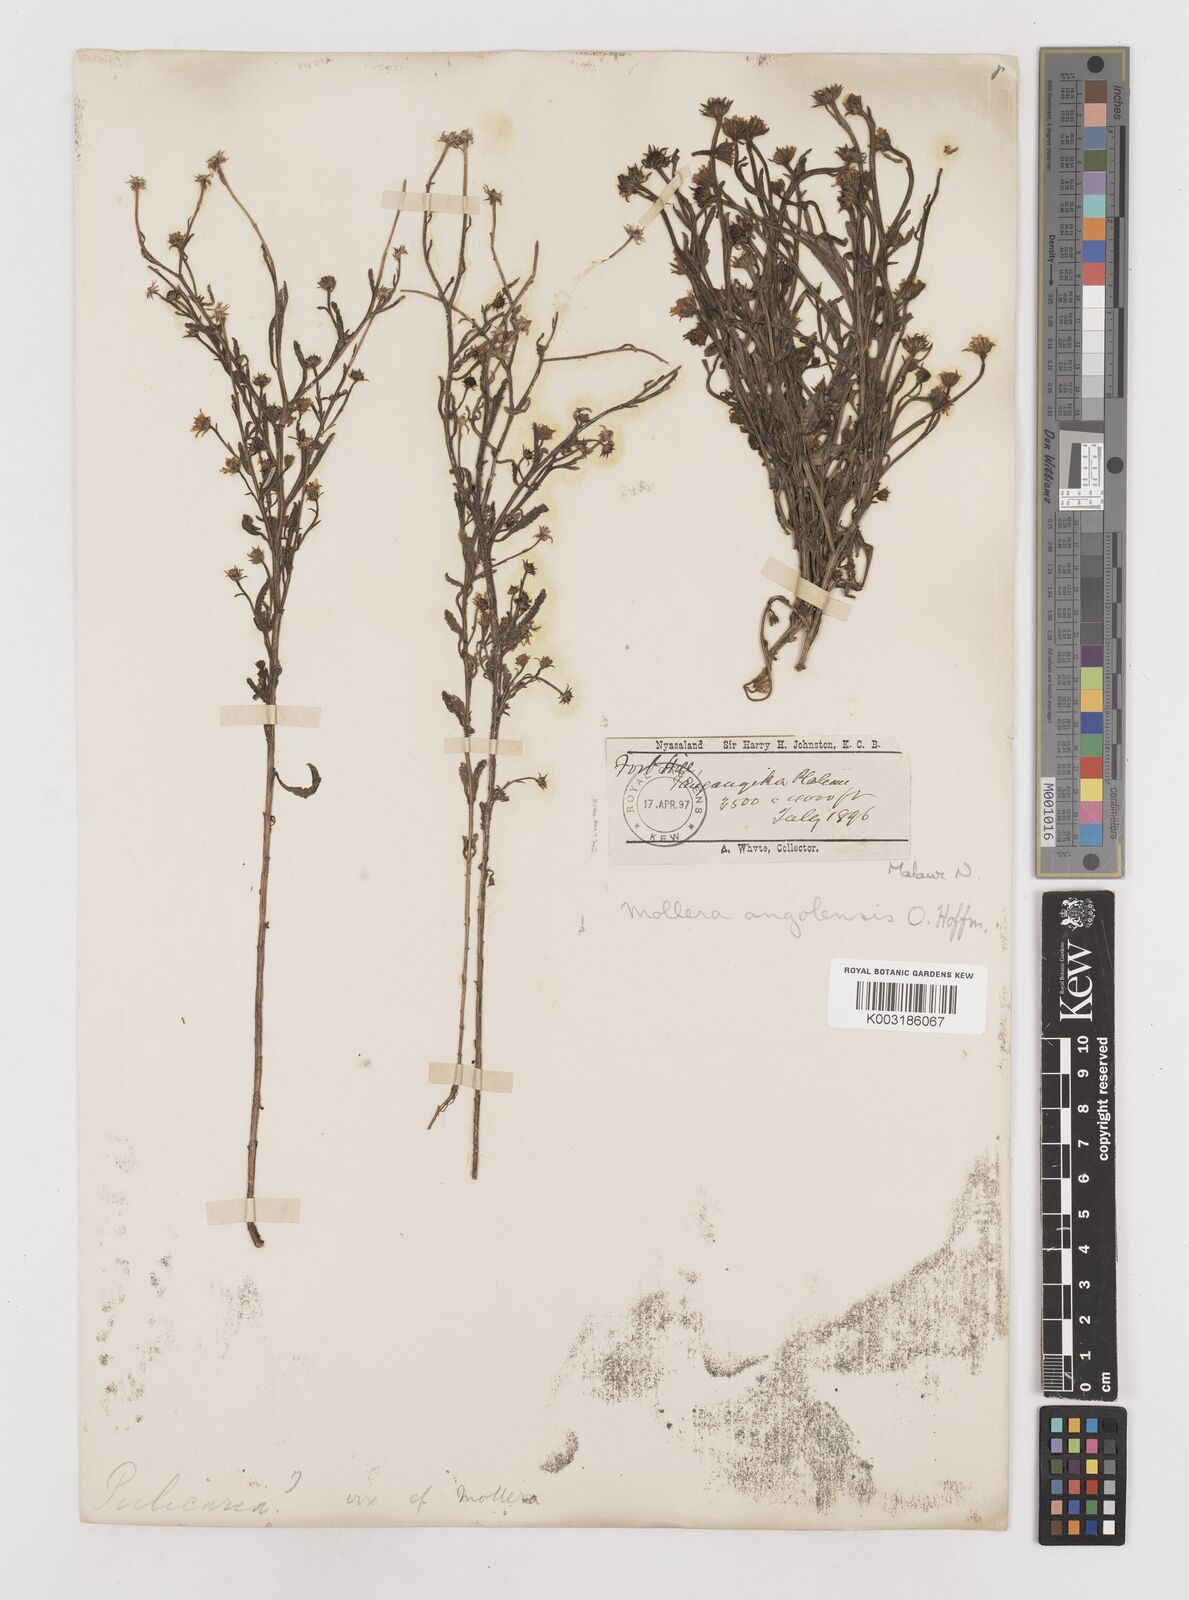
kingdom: Plantae
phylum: Tracheophyta
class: Magnoliopsida
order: Asterales
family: Asteraceae
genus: Calostephane
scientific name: Calostephane angolensis
